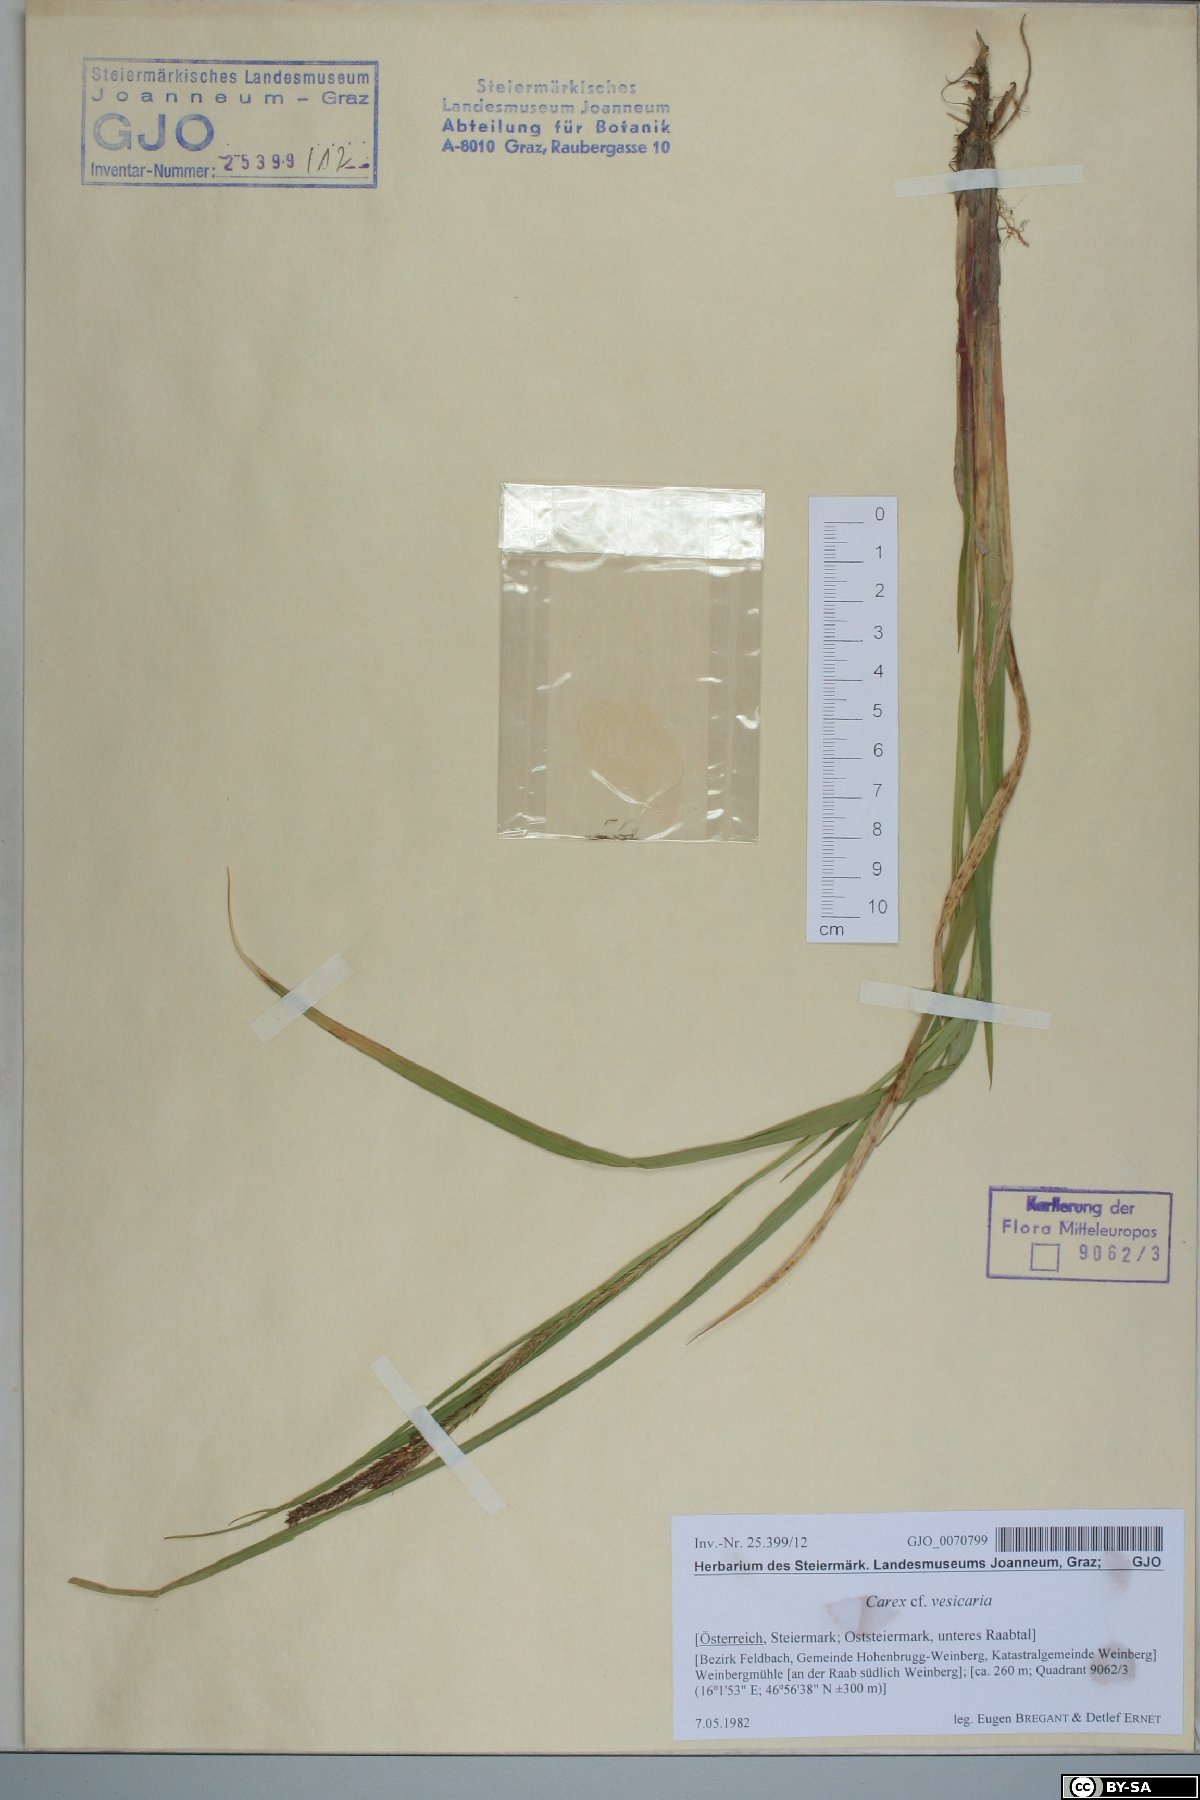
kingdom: Plantae
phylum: Tracheophyta
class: Liliopsida
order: Poales
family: Cyperaceae
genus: Carex
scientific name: Carex vesicaria
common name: Bladder-sedge
